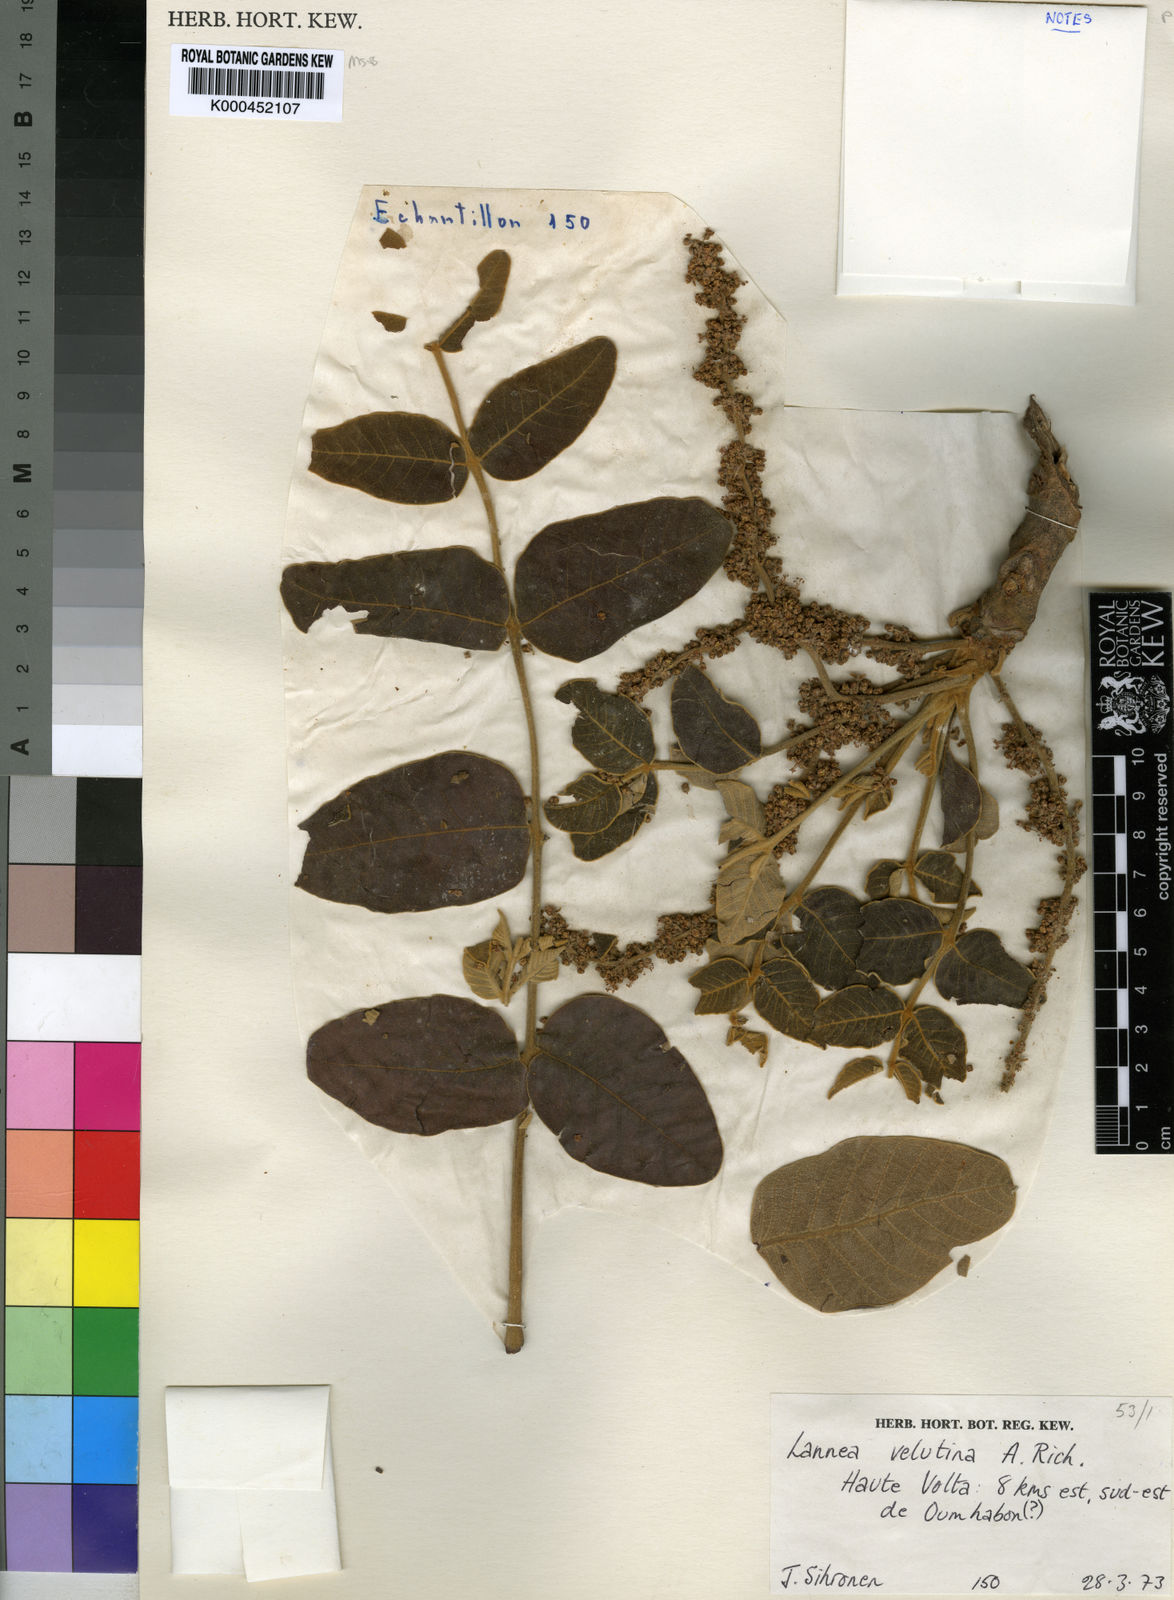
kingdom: Plantae
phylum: Tracheophyta
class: Magnoliopsida
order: Sapindales
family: Anacardiaceae
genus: Lannea
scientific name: Lannea velutina
